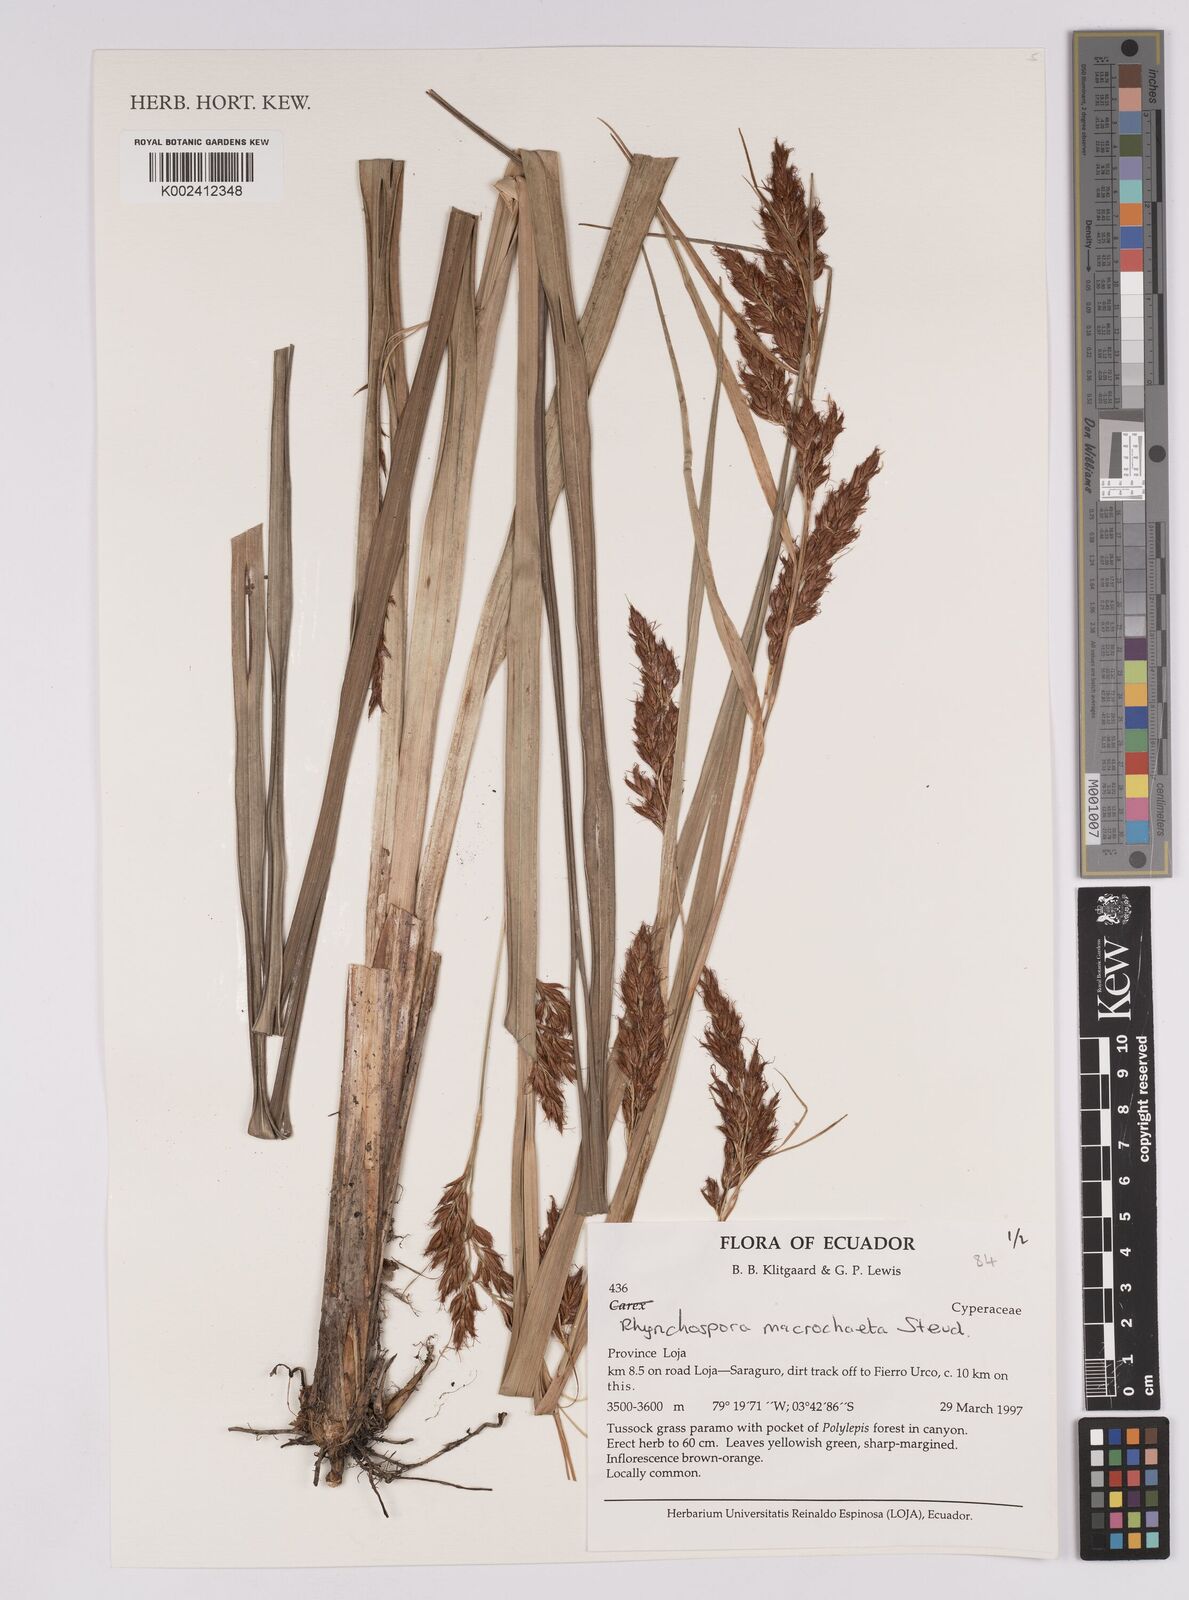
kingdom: Plantae
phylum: Tracheophyta
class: Liliopsida
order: Poales
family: Cyperaceae
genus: Rhynchospora
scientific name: Rhynchospora macrochaeta
